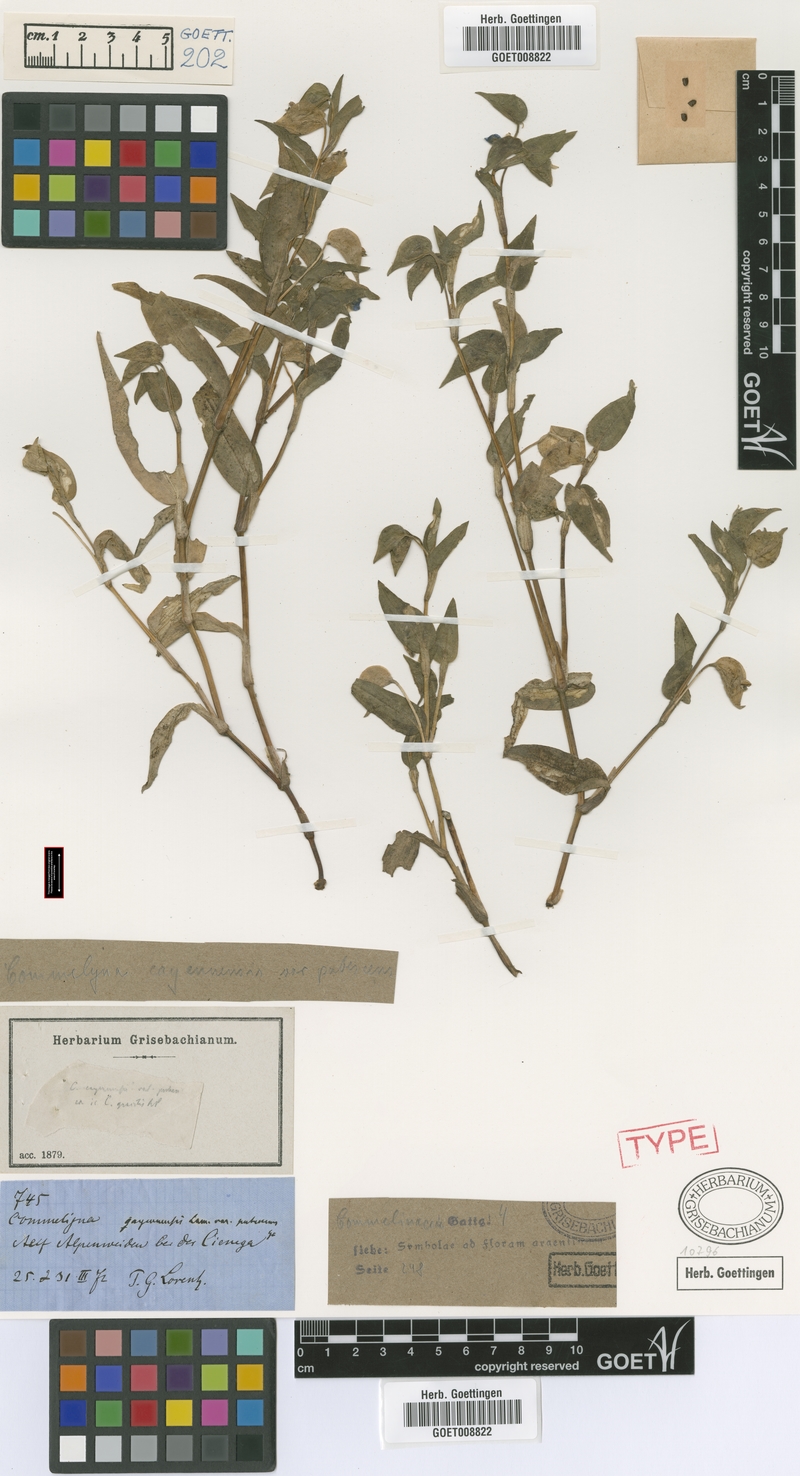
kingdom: Plantae
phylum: Tracheophyta
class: Liliopsida
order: Commelinales
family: Commelinaceae
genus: Commelina
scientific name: Commelina diffusa
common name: Climbing dayflower
